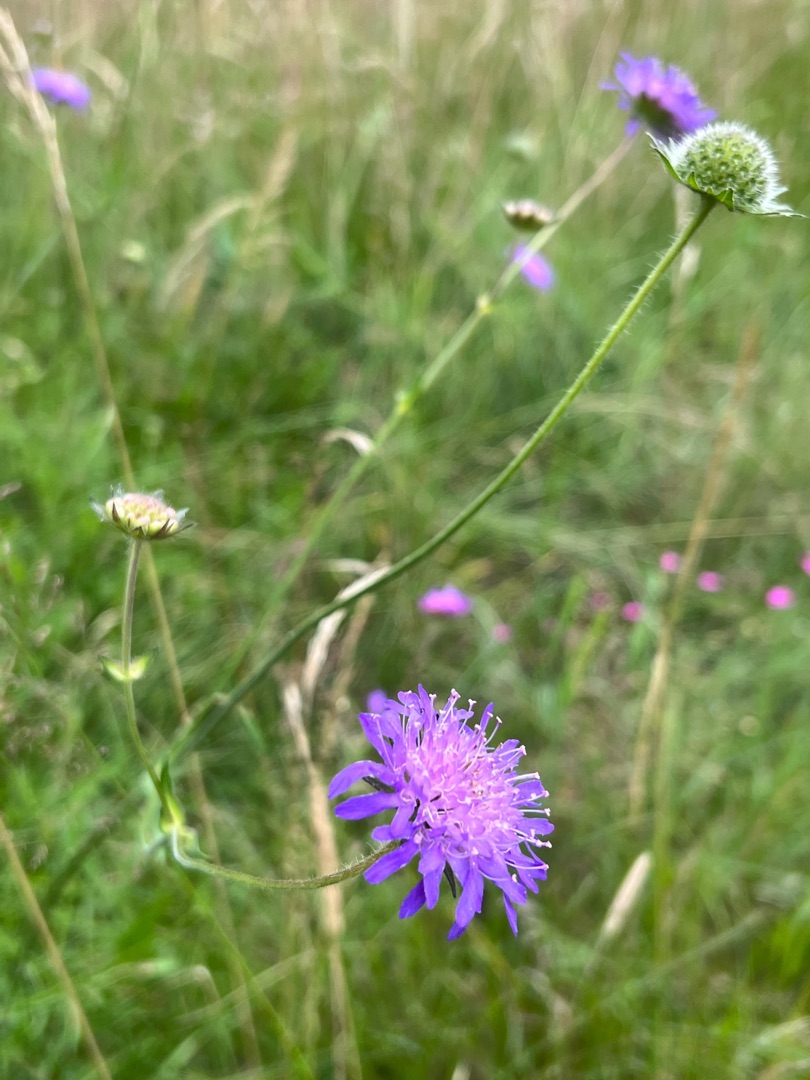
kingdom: Plantae
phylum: Tracheophyta
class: Magnoliopsida
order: Dipsacales
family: Caprifoliaceae
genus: Knautia
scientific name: Knautia arvensis
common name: Blåhat
